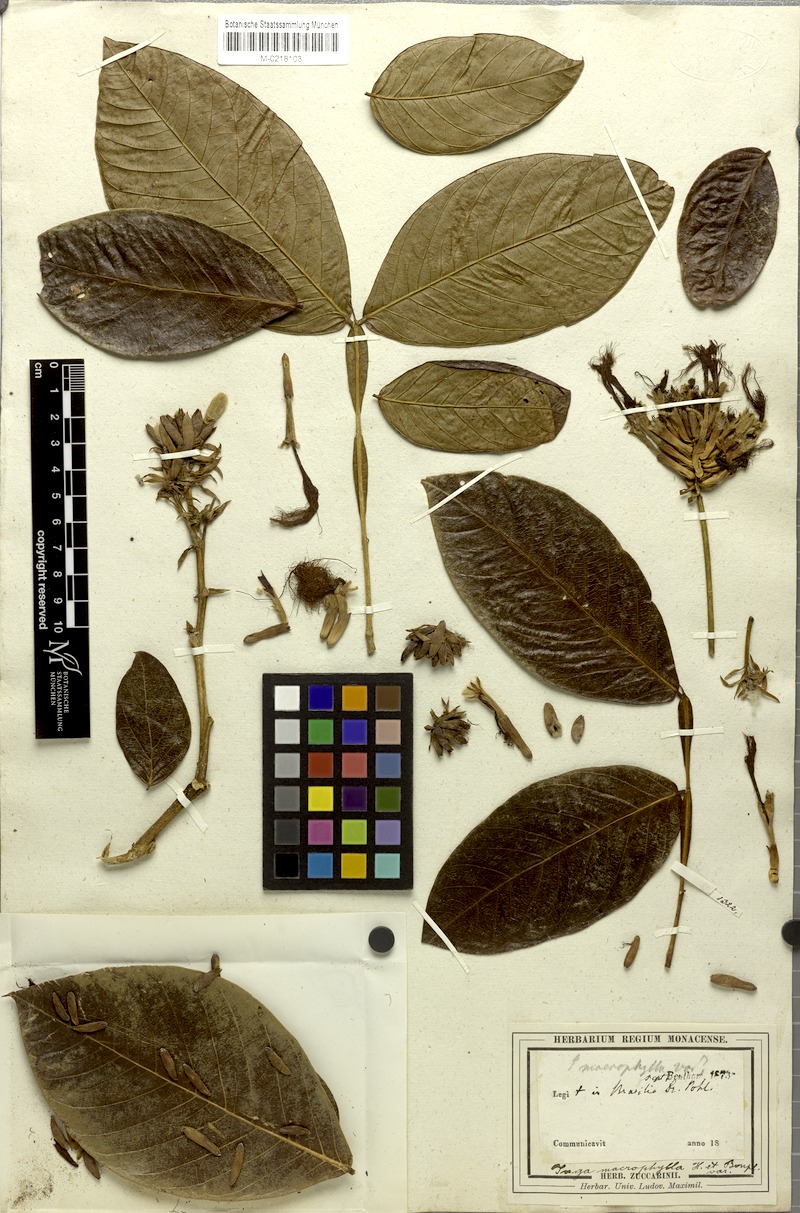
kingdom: Plantae
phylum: Tracheophyta
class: Magnoliopsida
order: Fabales
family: Fabaceae
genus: Inga
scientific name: Inga macrophylla
